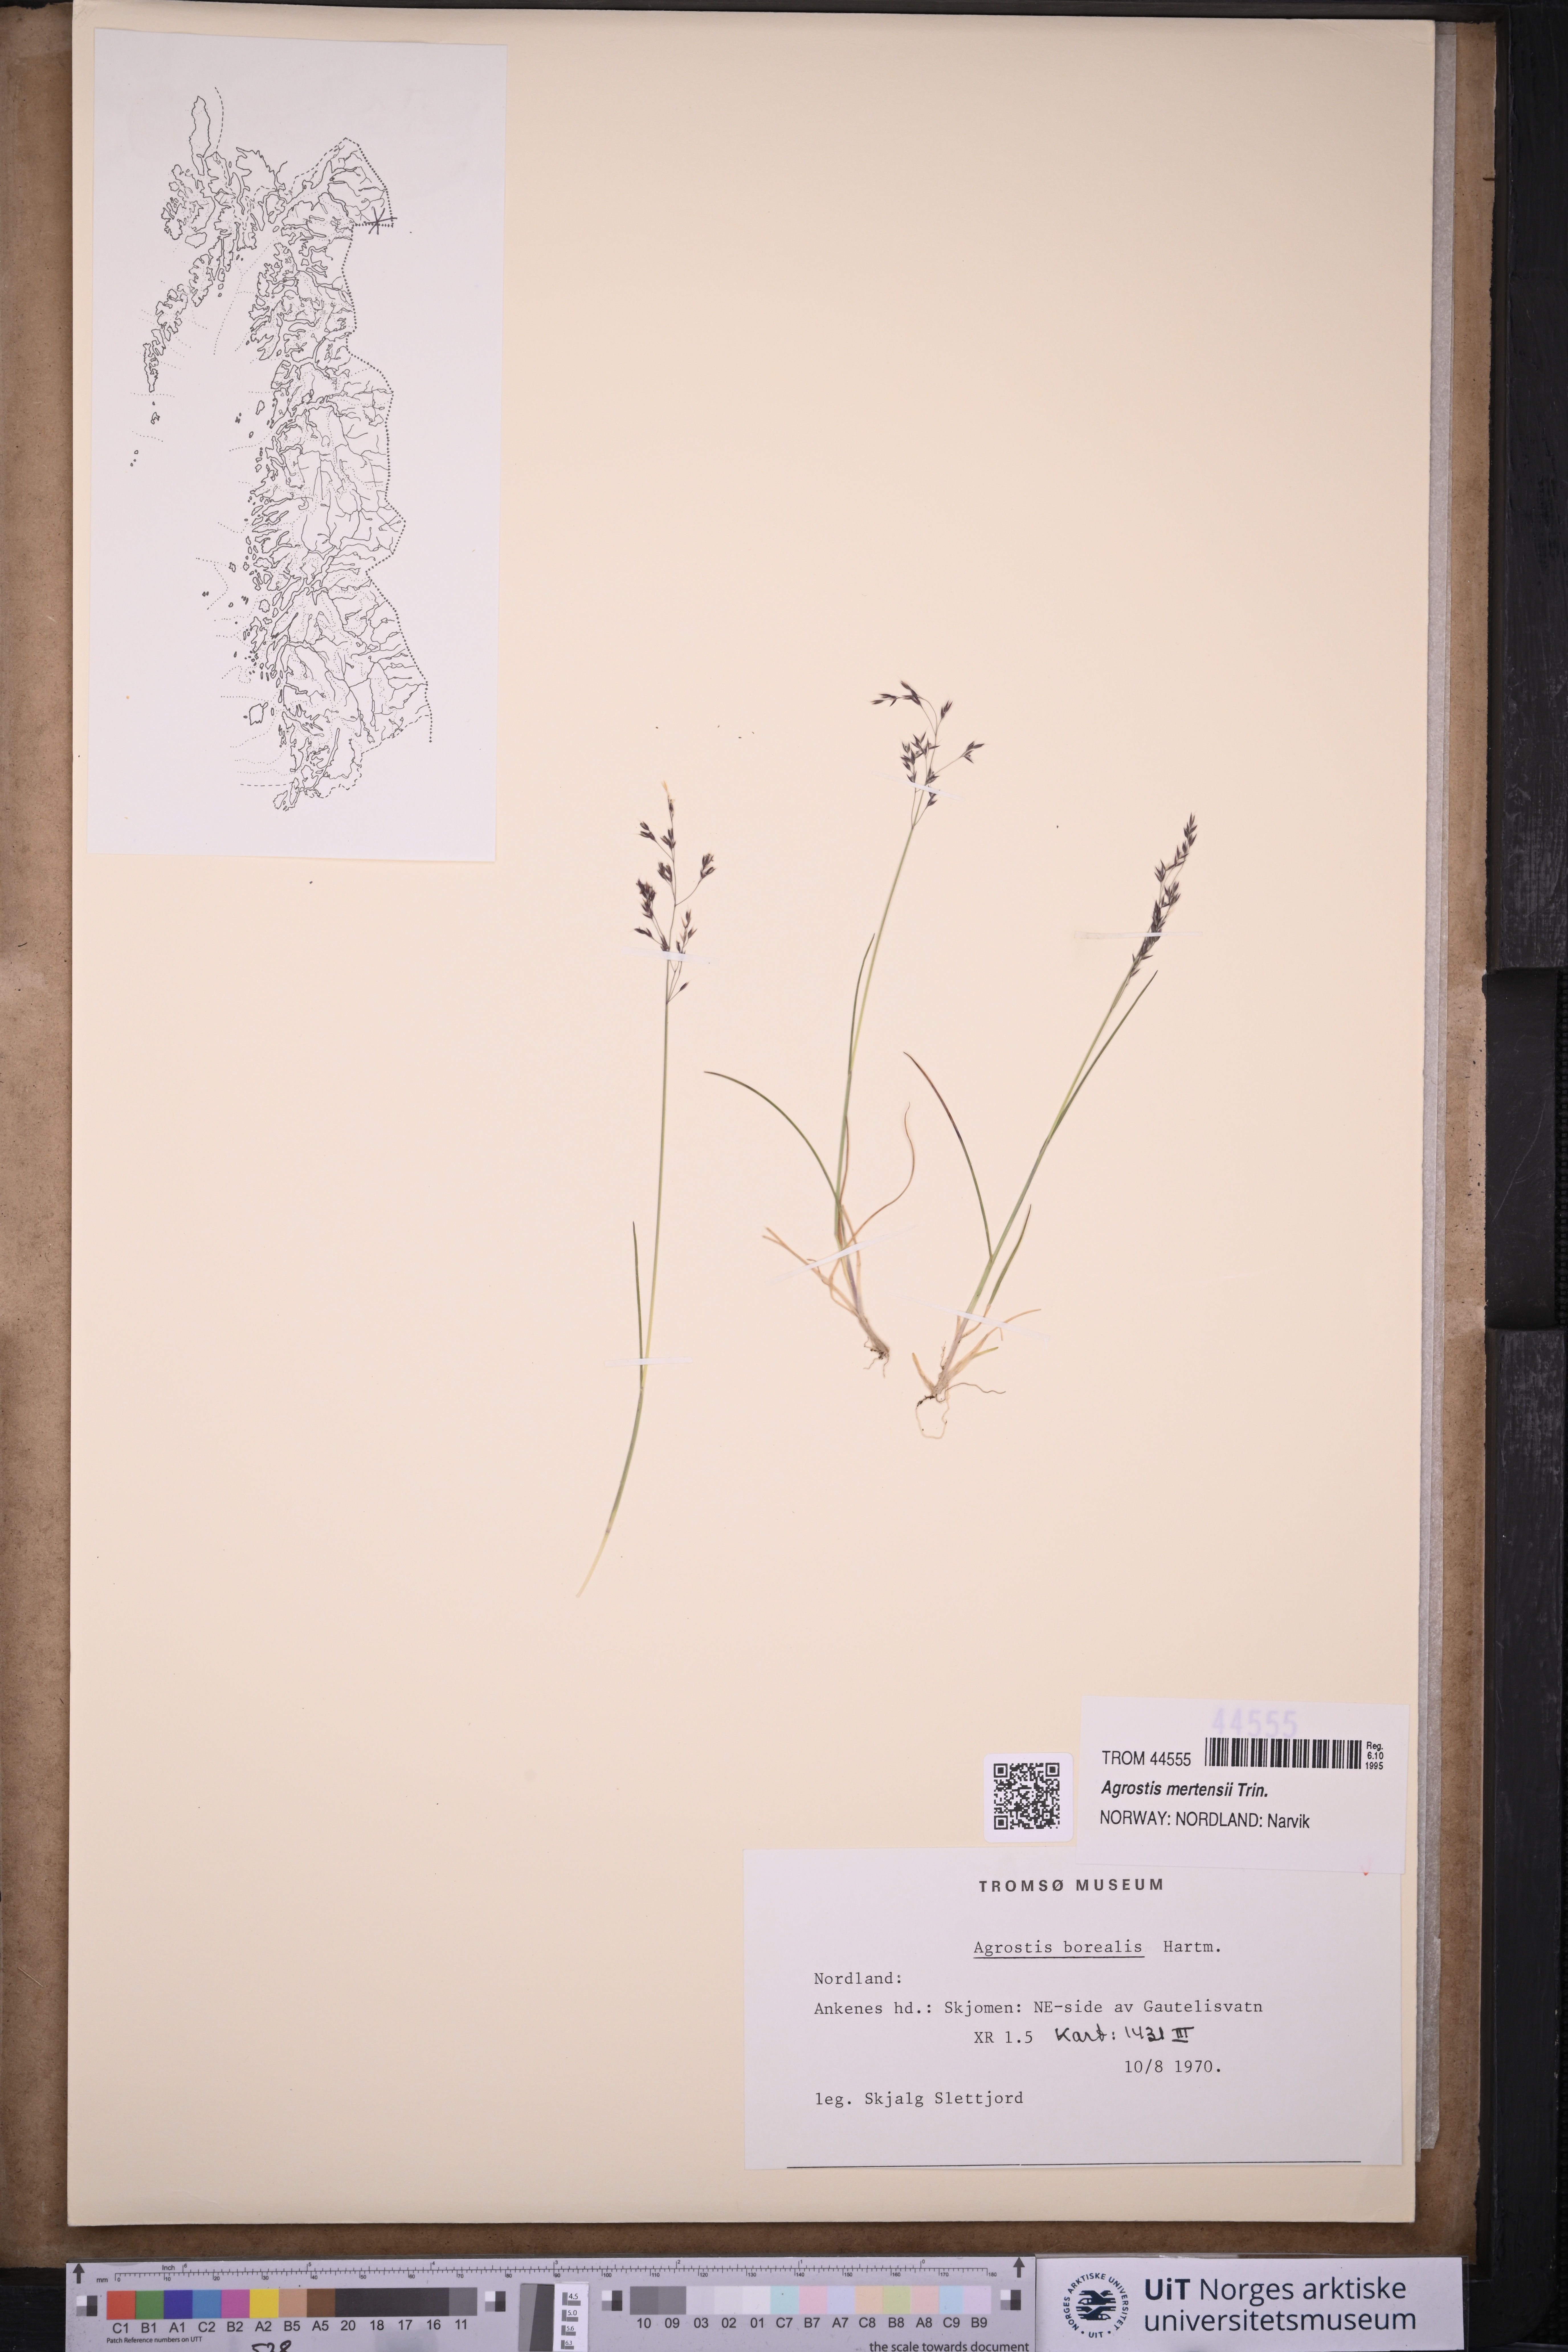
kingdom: Plantae
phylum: Tracheophyta
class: Liliopsida
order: Poales
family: Poaceae
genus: Agrostis
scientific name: Agrostis mertensii
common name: Northern bent
